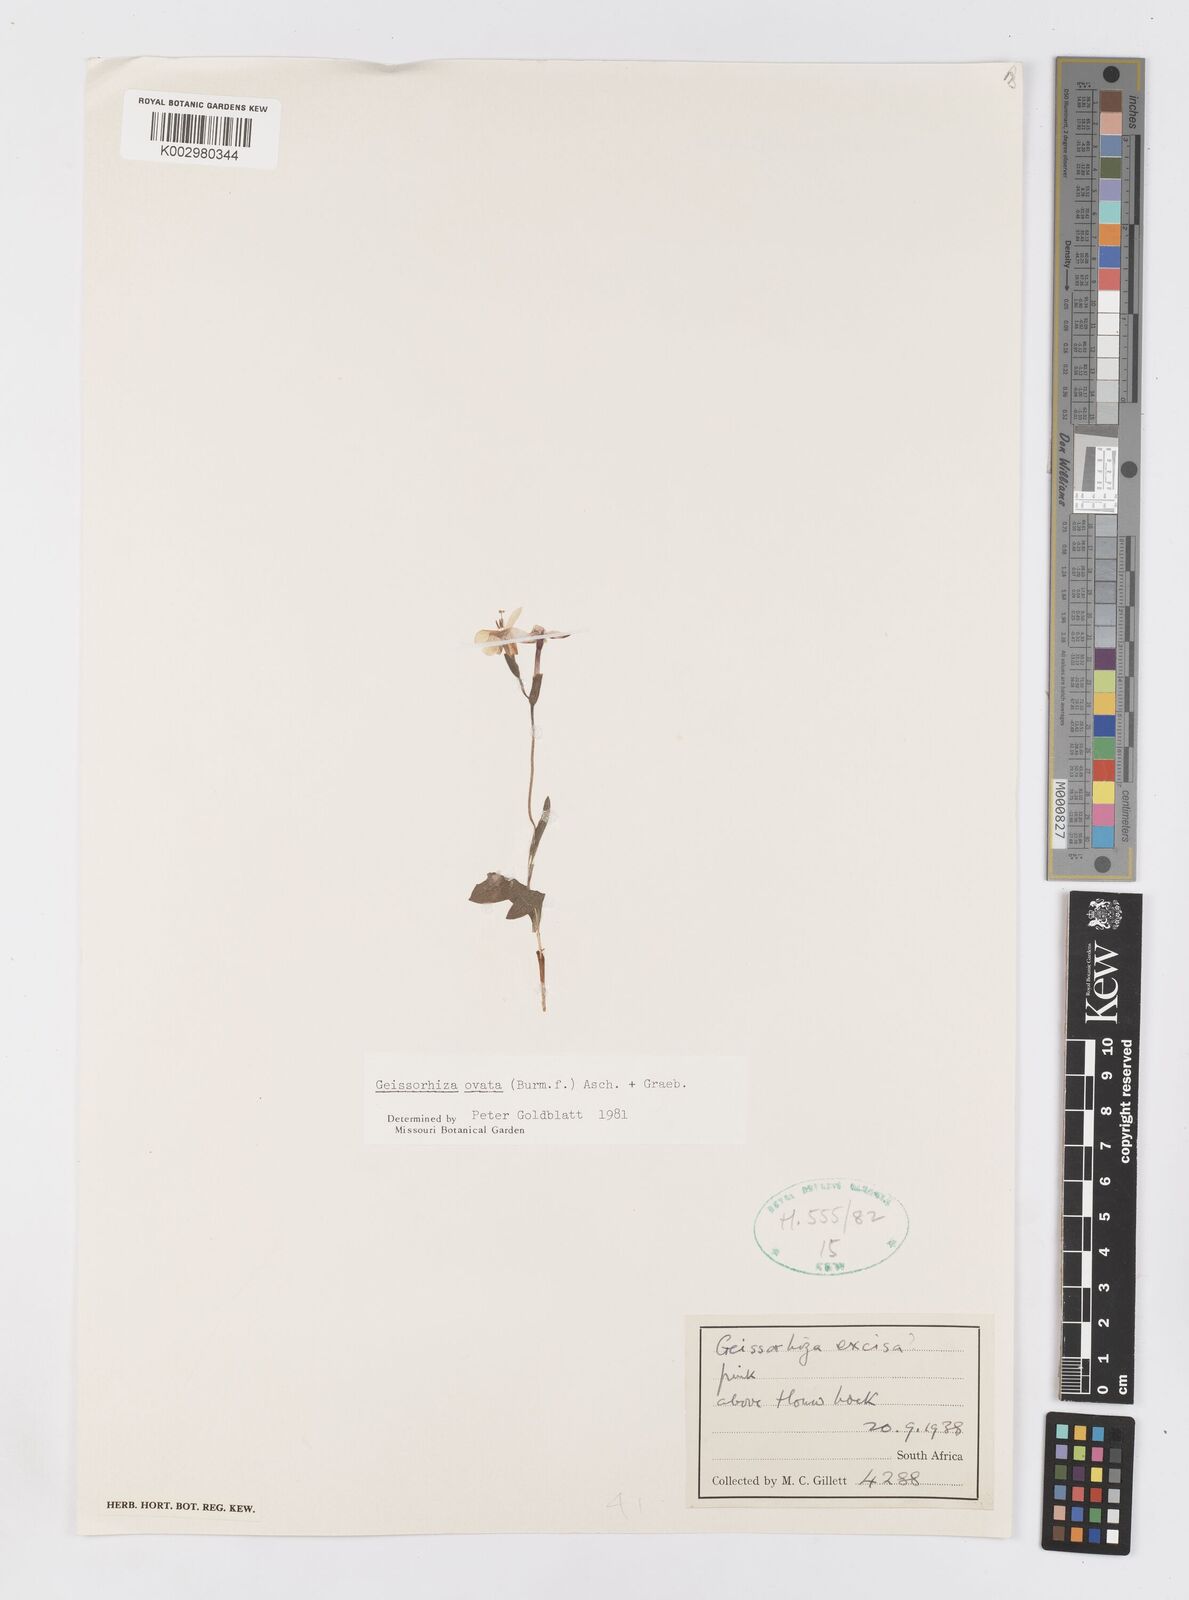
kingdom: Plantae
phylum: Tracheophyta
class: Liliopsida
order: Asparagales
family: Iridaceae
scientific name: Iridaceae
